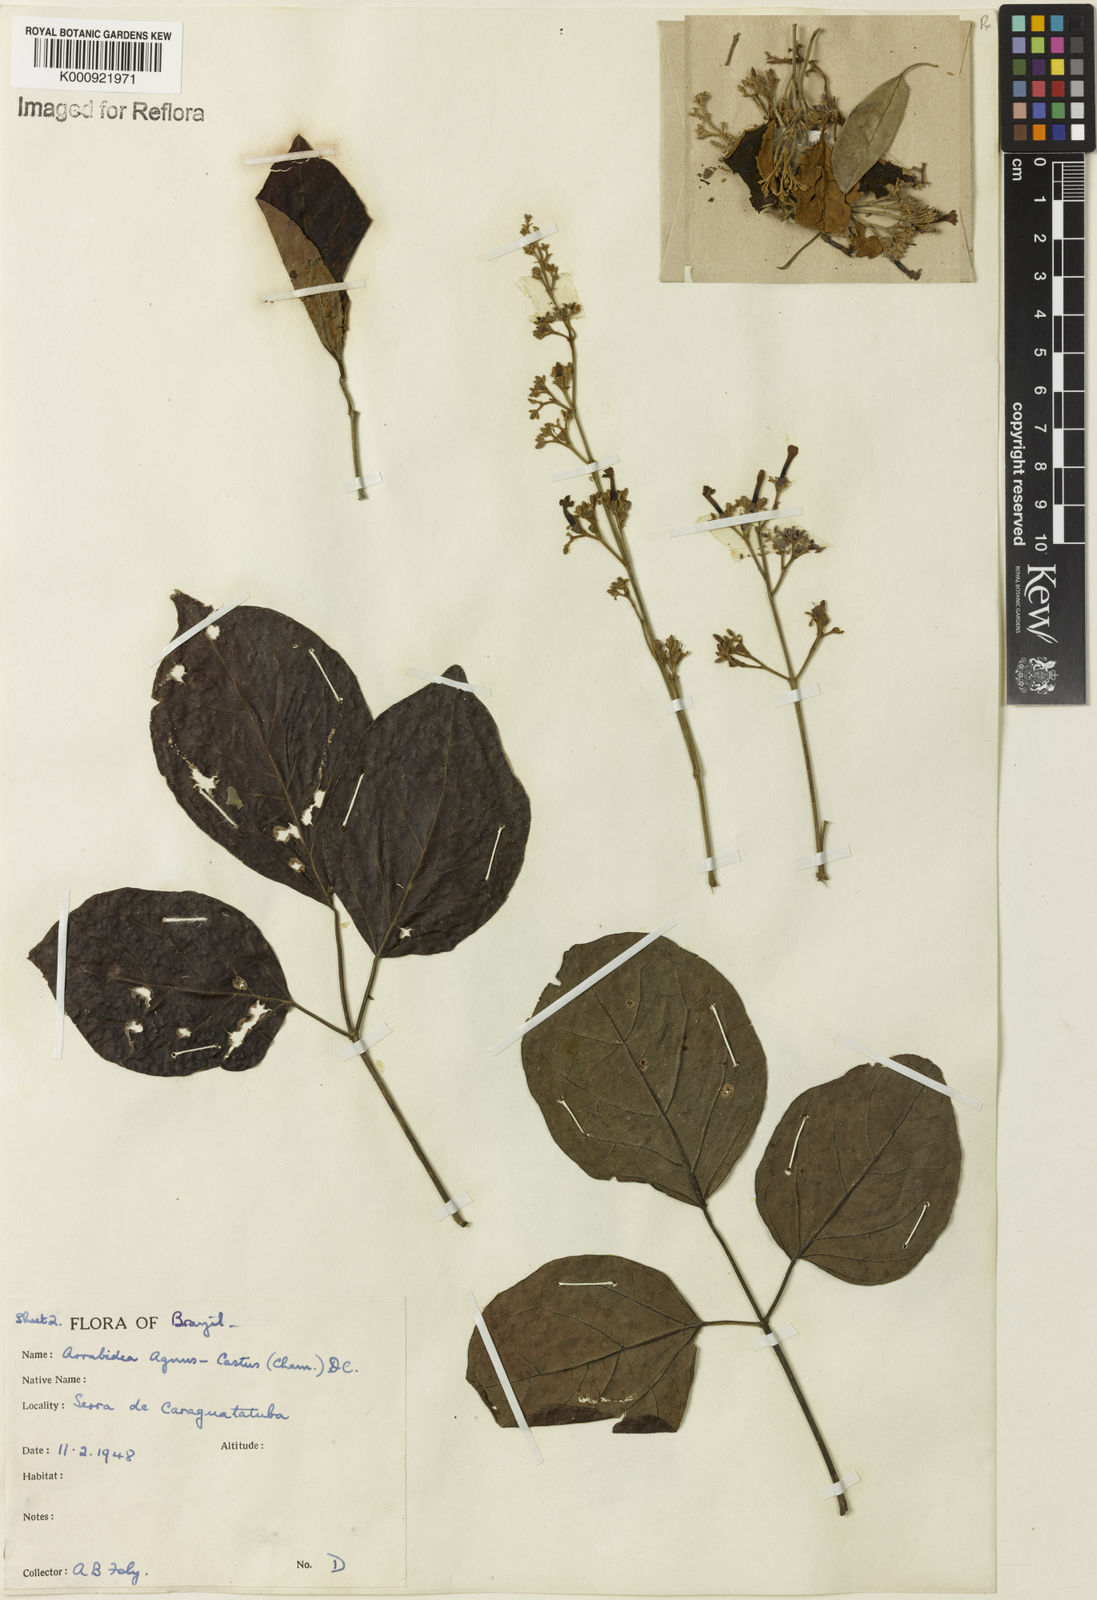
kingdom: Plantae
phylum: Tracheophyta
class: Magnoliopsida
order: Lamiales
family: Bignoniaceae
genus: Fridericia
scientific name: Fridericia rego
